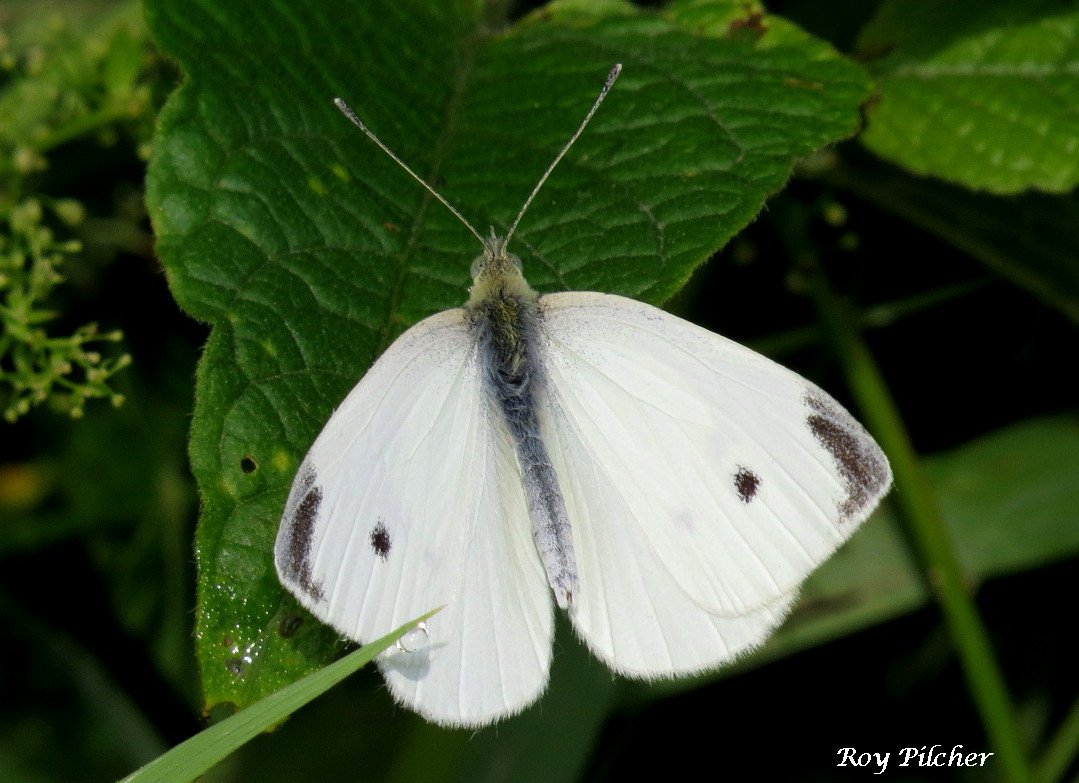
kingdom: Animalia
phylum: Arthropoda
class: Insecta
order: Lepidoptera
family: Pieridae
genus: Pieris
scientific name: Pieris rapae
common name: Cabbage White
